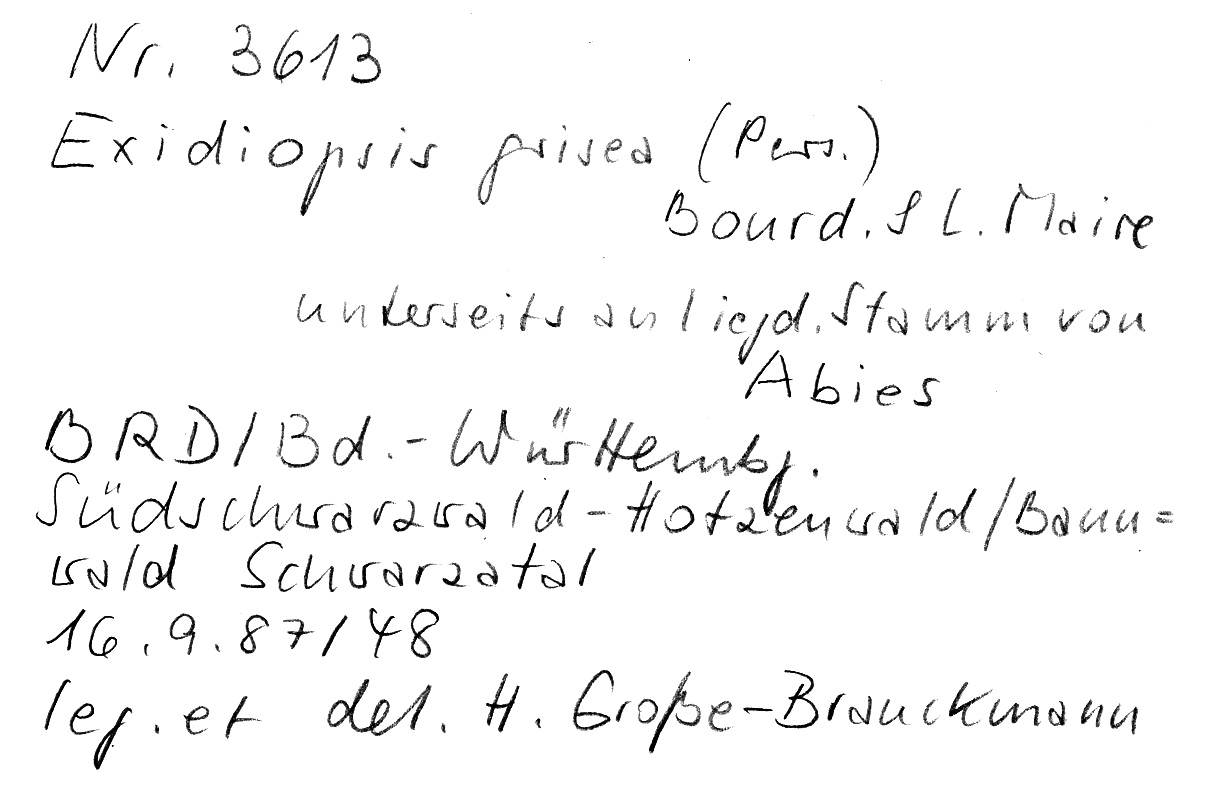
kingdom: Fungi
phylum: Basidiomycota
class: Agaricomycetes
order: Sebacinales
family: Sebacinaceae
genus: Sebacina
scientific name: Sebacina grisea
